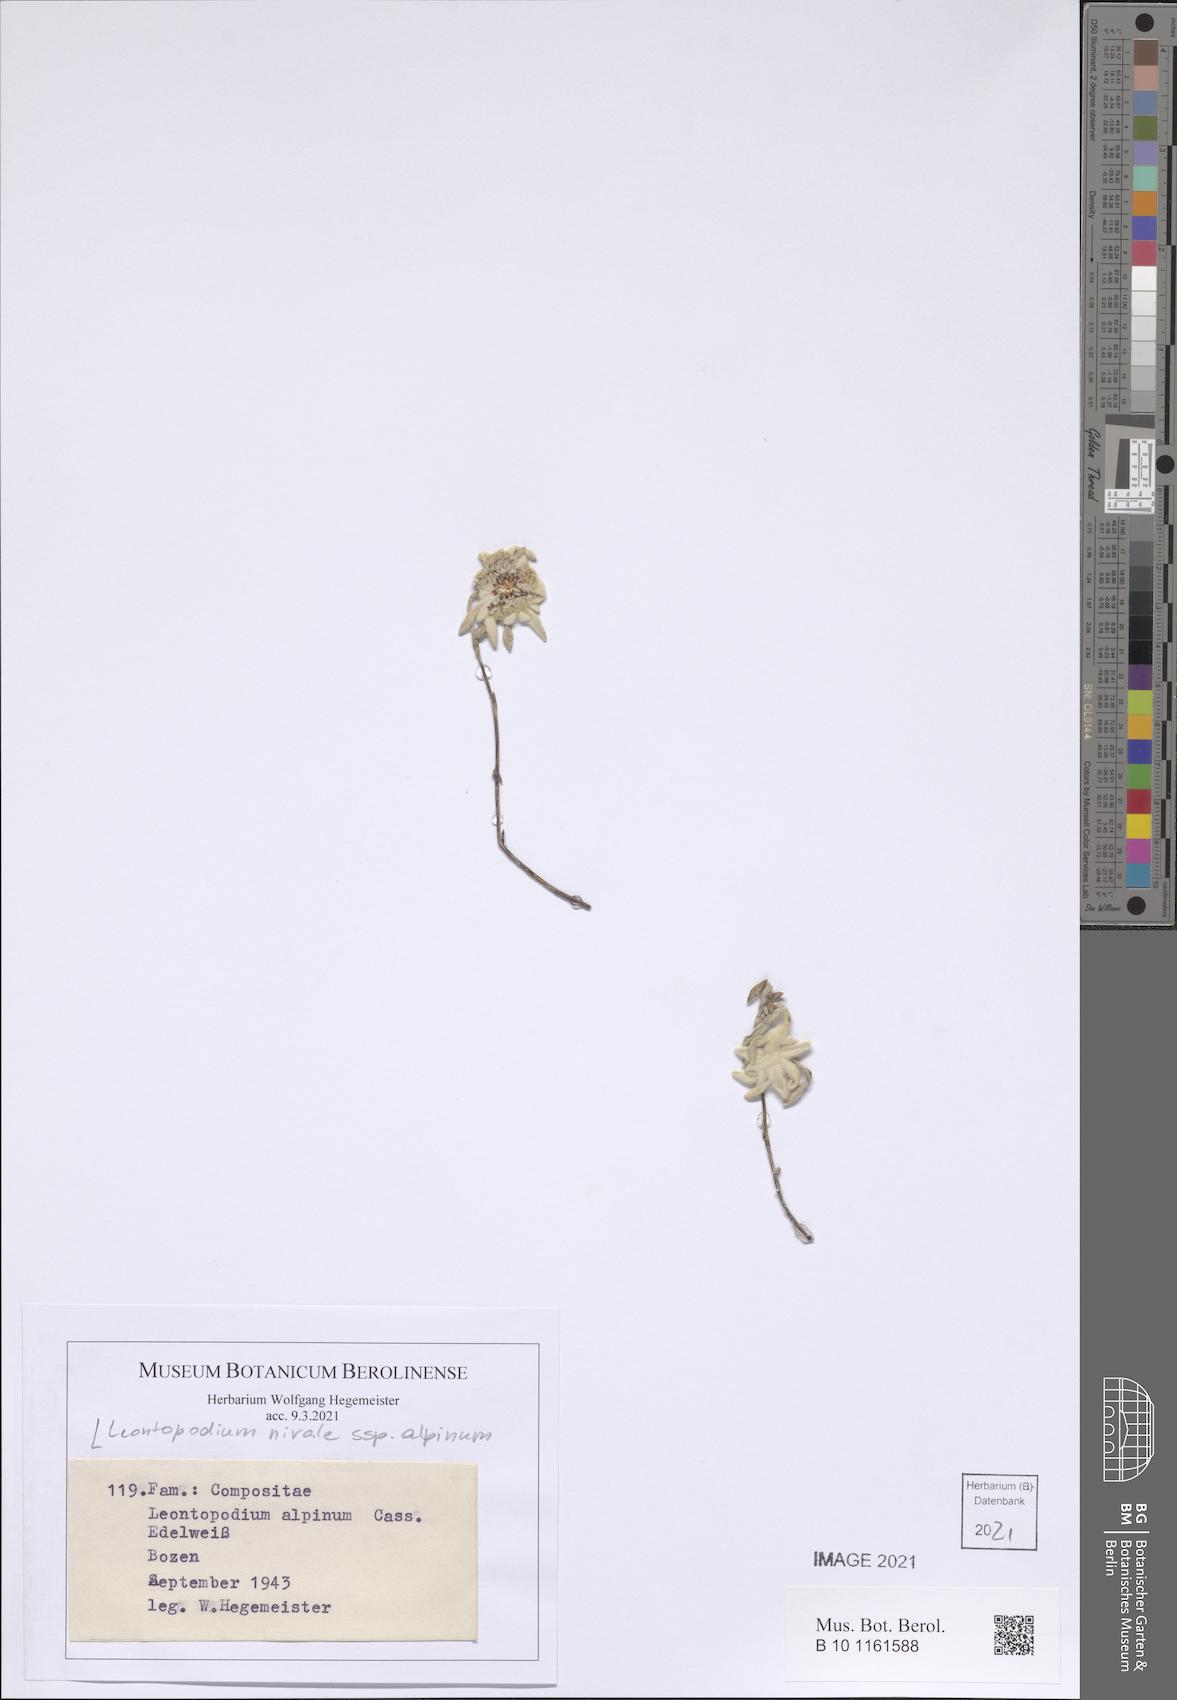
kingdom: Plantae
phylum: Tracheophyta
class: Magnoliopsida
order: Asterales
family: Asteraceae
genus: Leontopodium
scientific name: Leontopodium nivale
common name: Edelweiss
